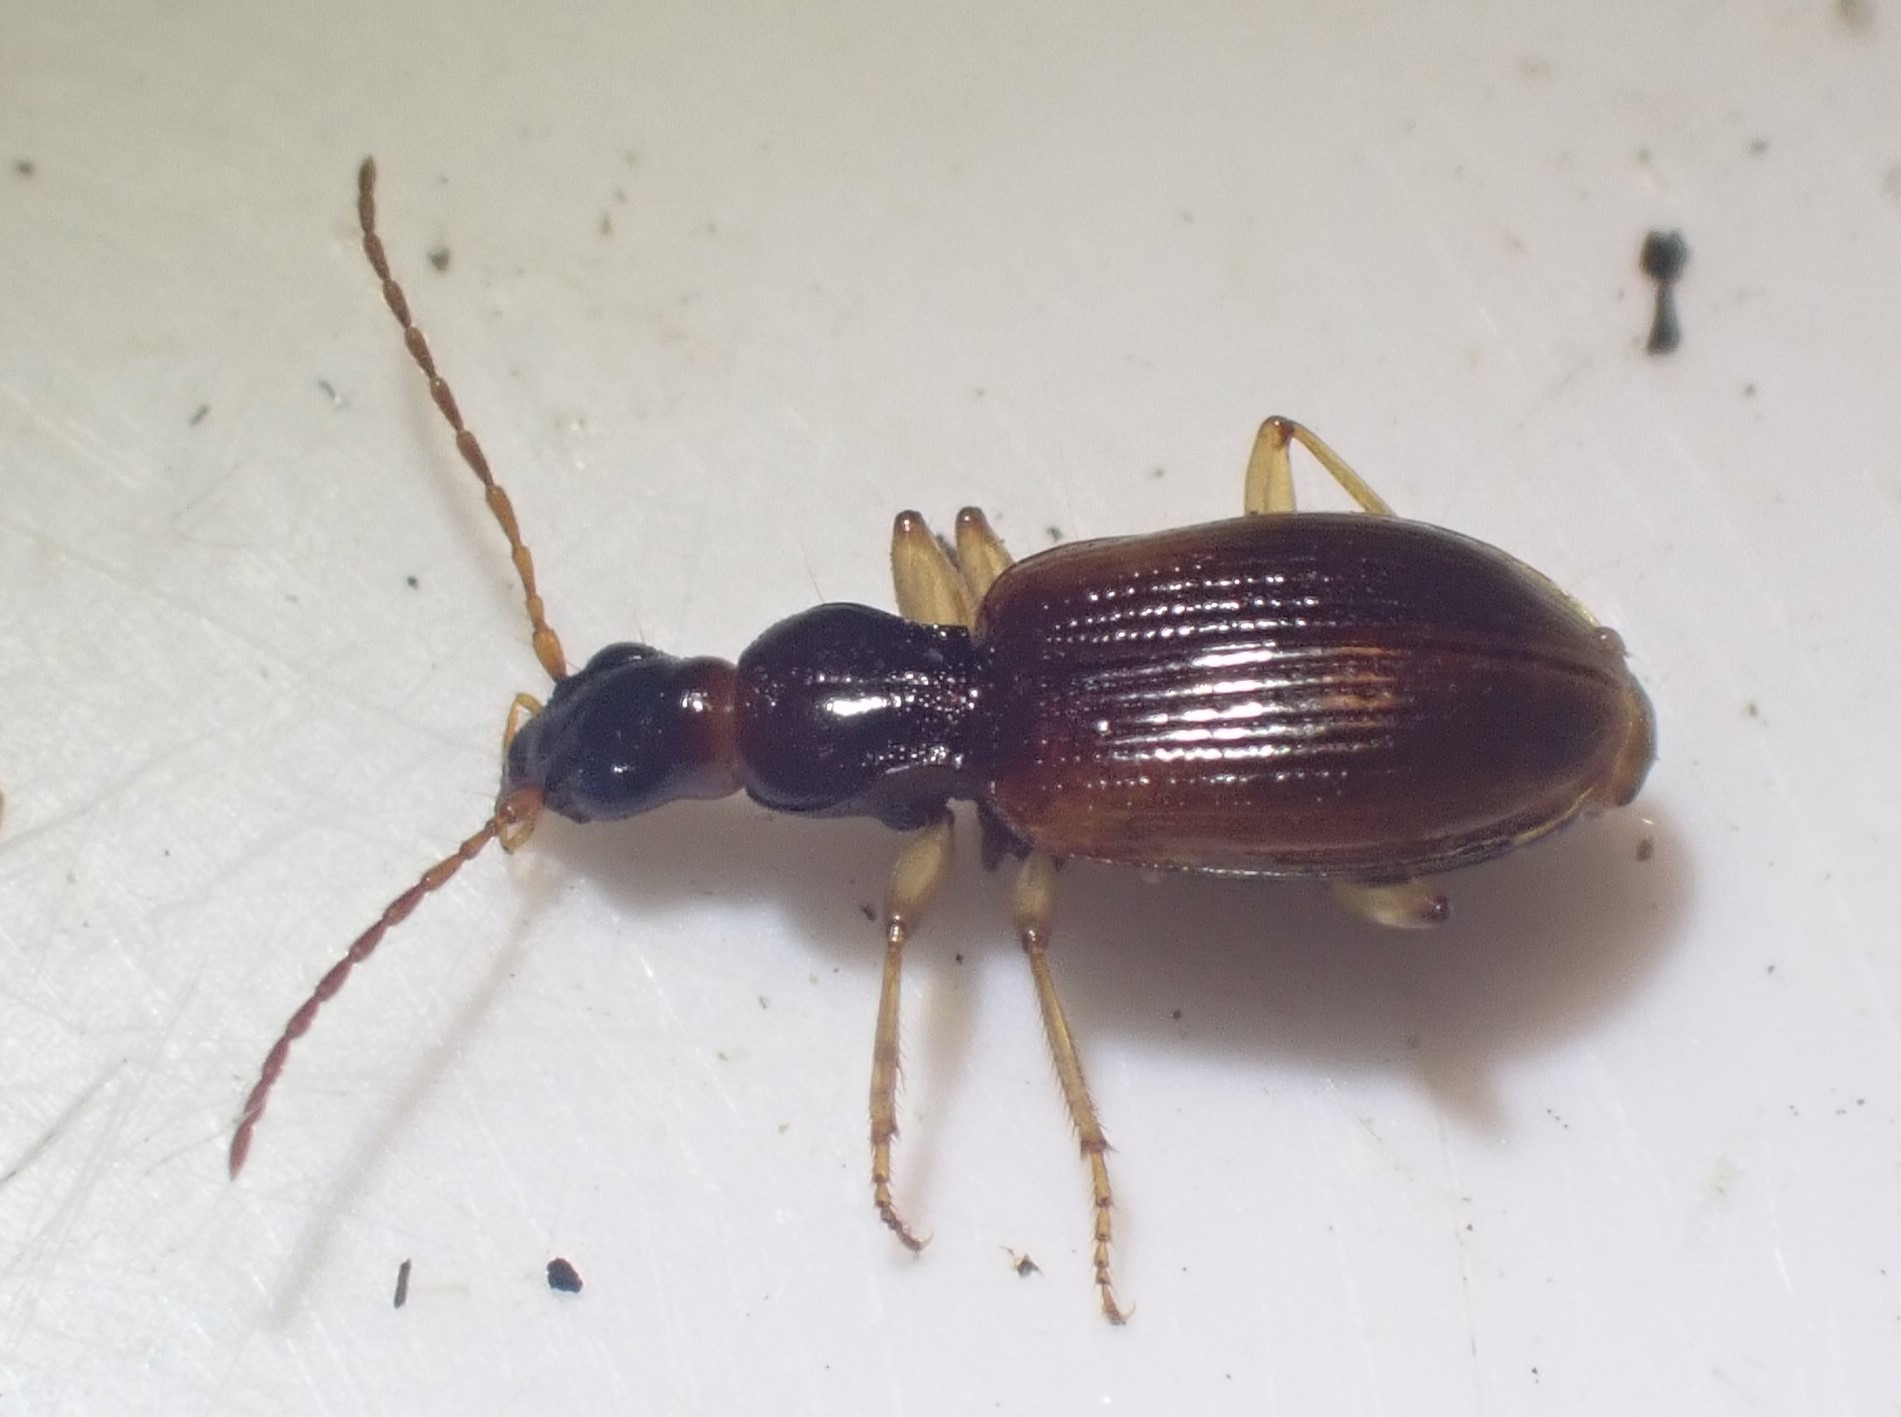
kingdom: Animalia
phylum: Arthropoda
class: Insecta
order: Coleoptera
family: Carabidae
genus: Oxypselaphus
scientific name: Oxypselaphus obscurus
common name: Rødbrun kvikløber
